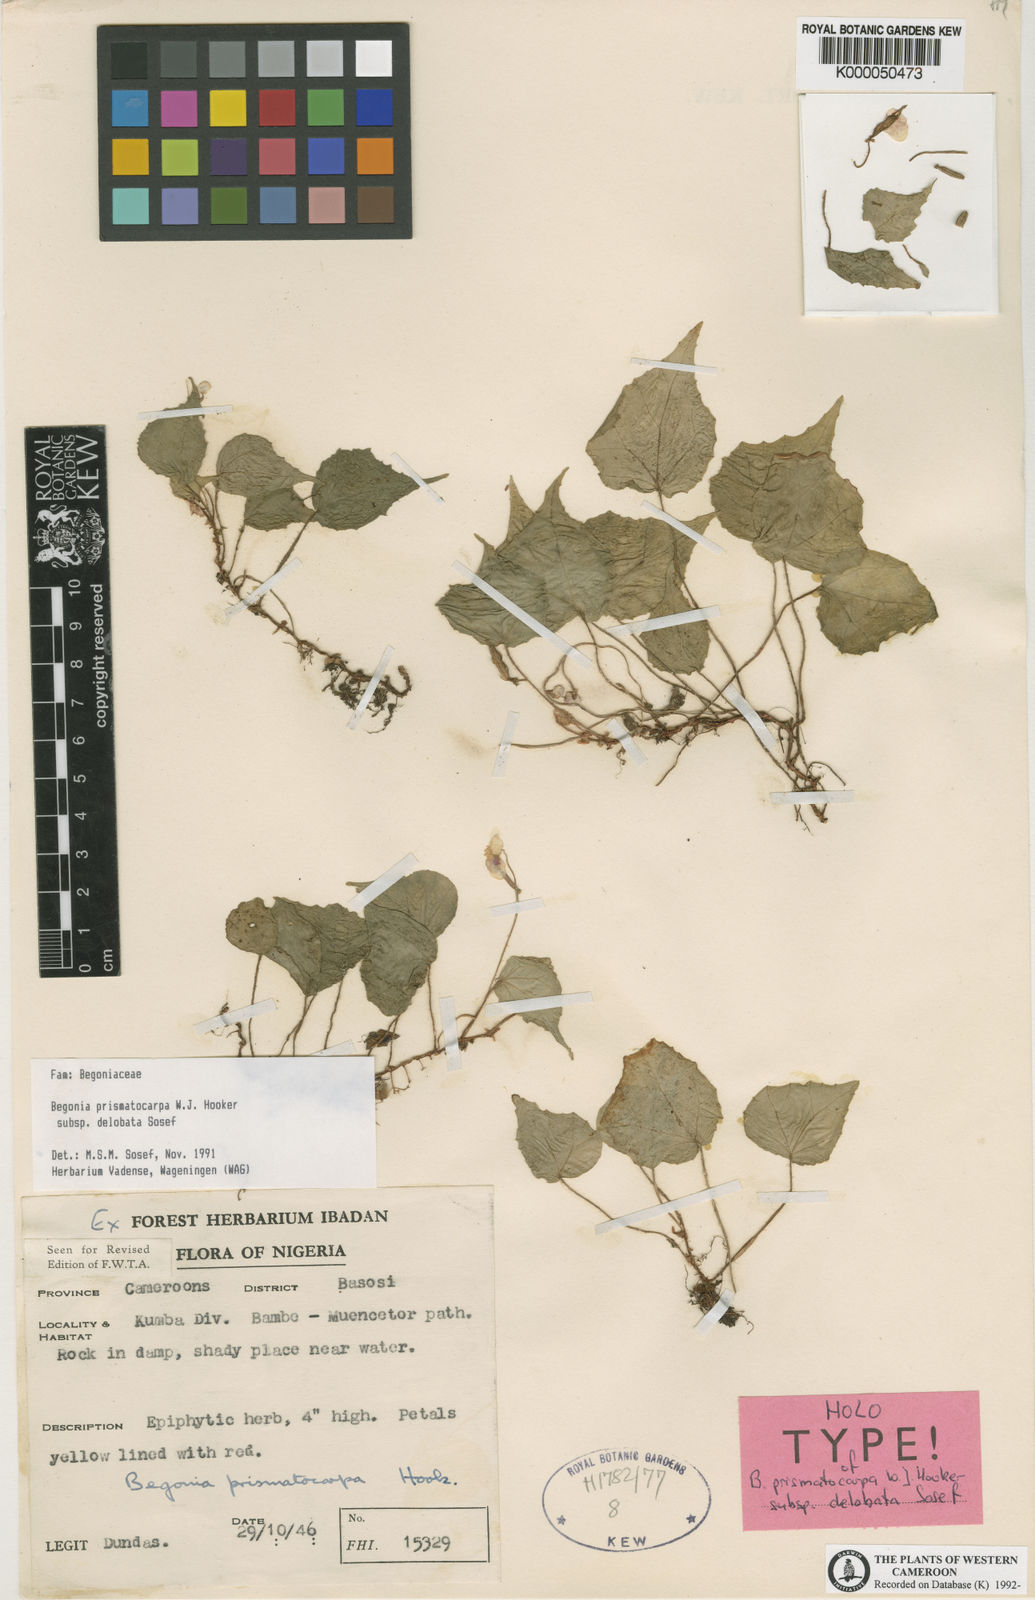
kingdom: Plantae
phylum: Tracheophyta
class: Magnoliopsida
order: Cucurbitales
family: Begoniaceae
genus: Begonia
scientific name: Begonia prismatocarpa
